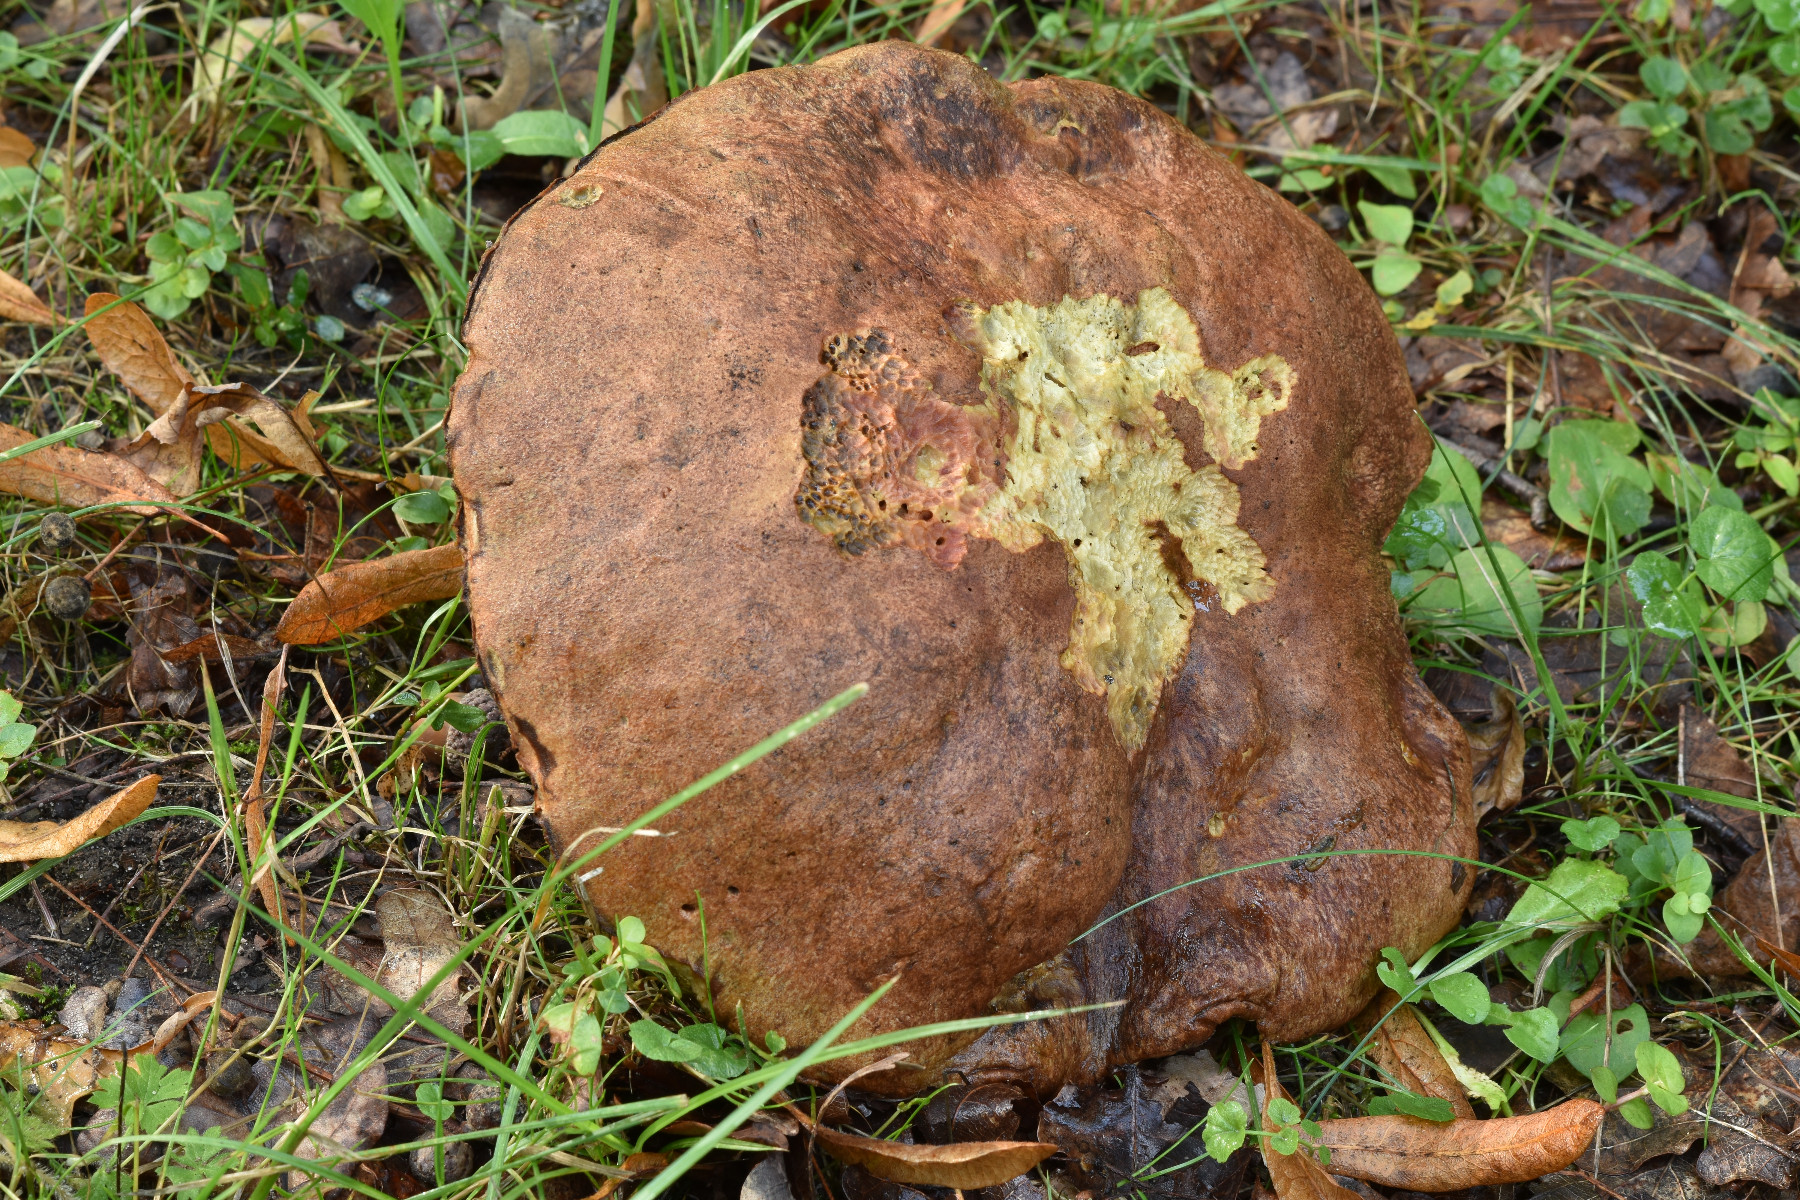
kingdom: Fungi
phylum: Basidiomycota
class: Agaricomycetes
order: Boletales
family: Boletaceae
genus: Butyriboletus
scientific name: Butyriboletus appendiculatus
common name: tenstokket rørhat
